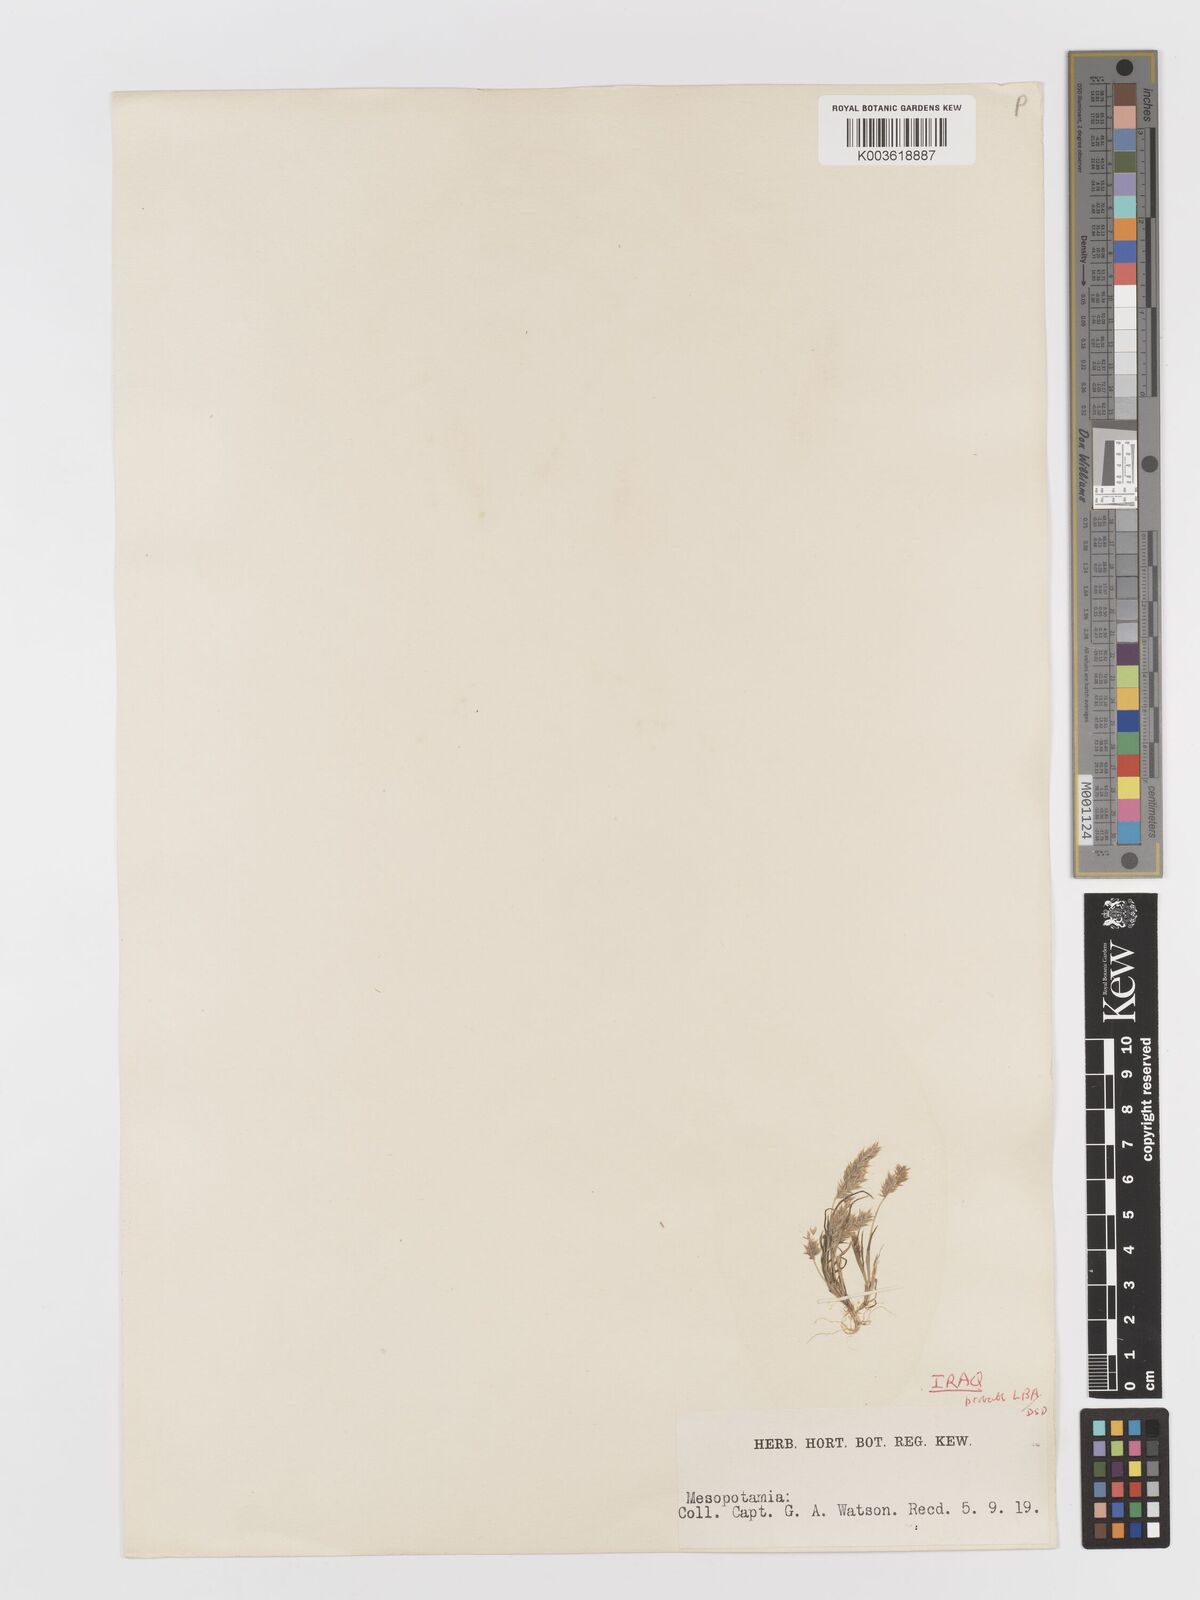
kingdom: Plantae
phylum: Tracheophyta
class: Liliopsida
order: Poales
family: Poaceae
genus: Rostraria
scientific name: Rostraria cristata
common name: Mediterranean hair-grass
